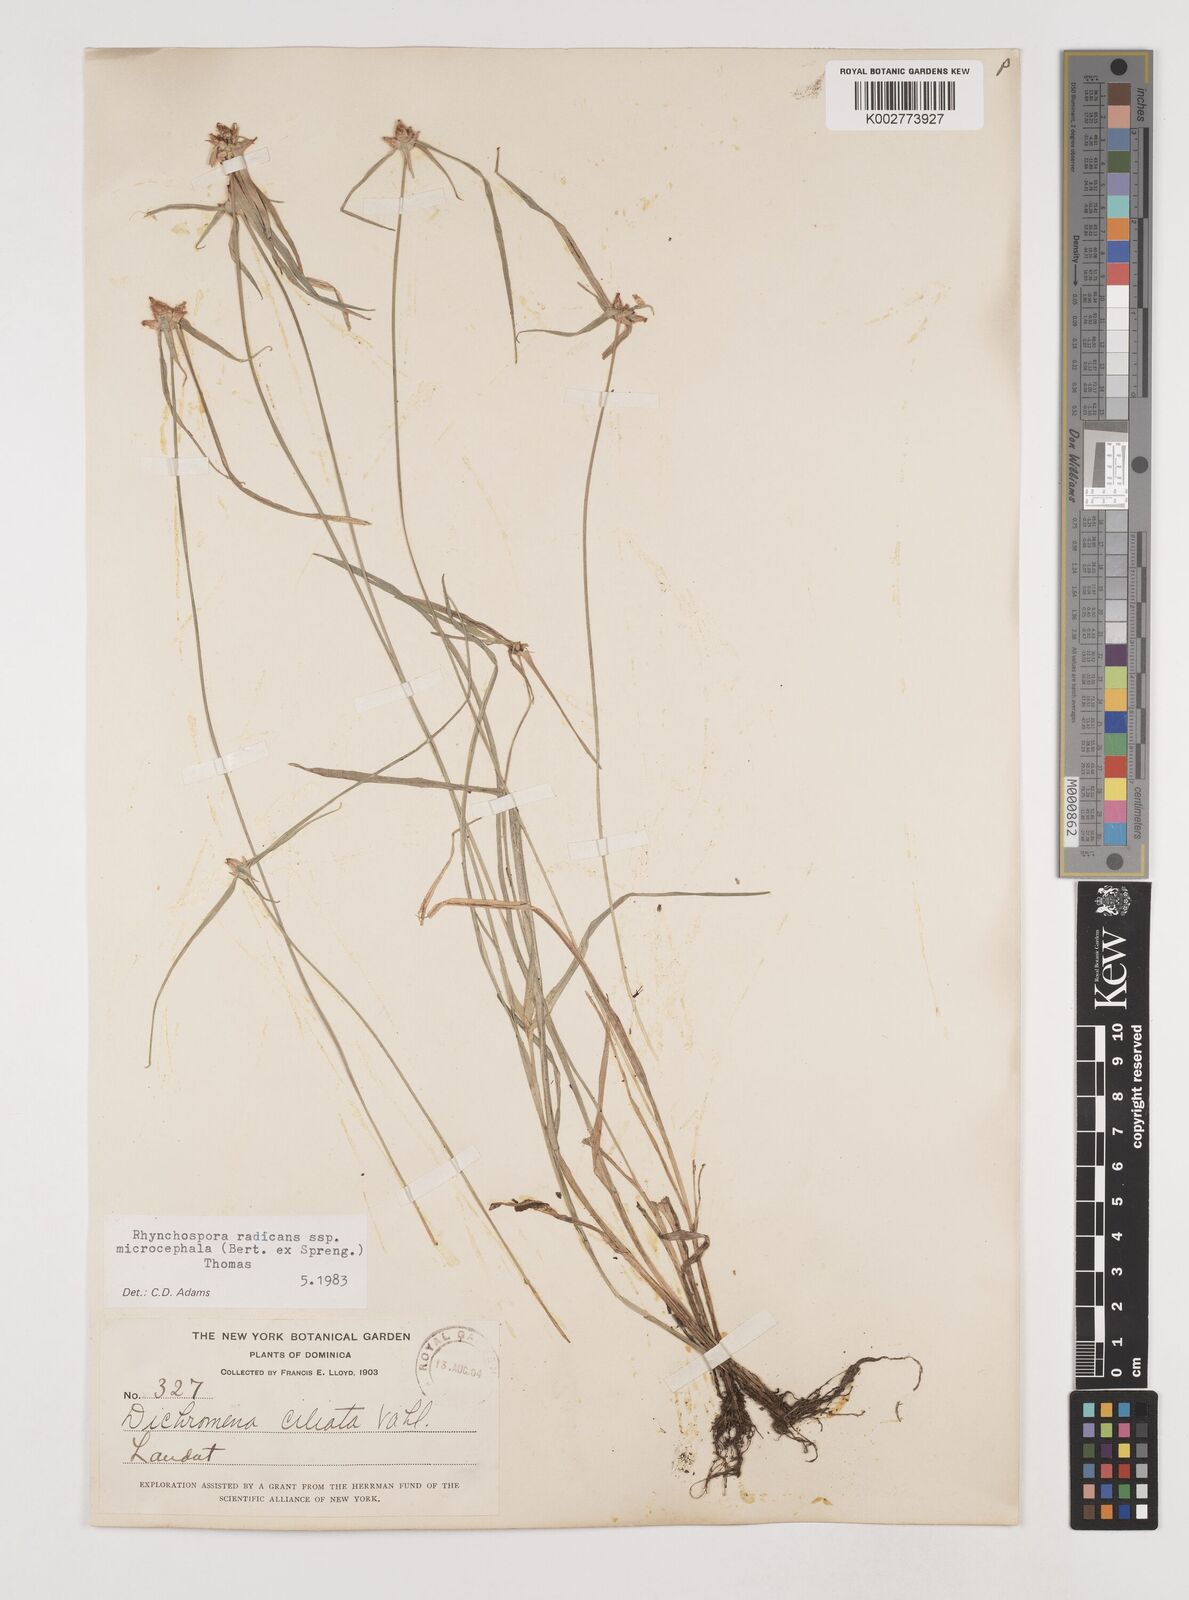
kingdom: Plantae
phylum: Tracheophyta
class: Liliopsida
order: Poales
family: Cyperaceae
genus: Rhynchospora
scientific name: Rhynchospora radicans
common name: Tropical whitetop
